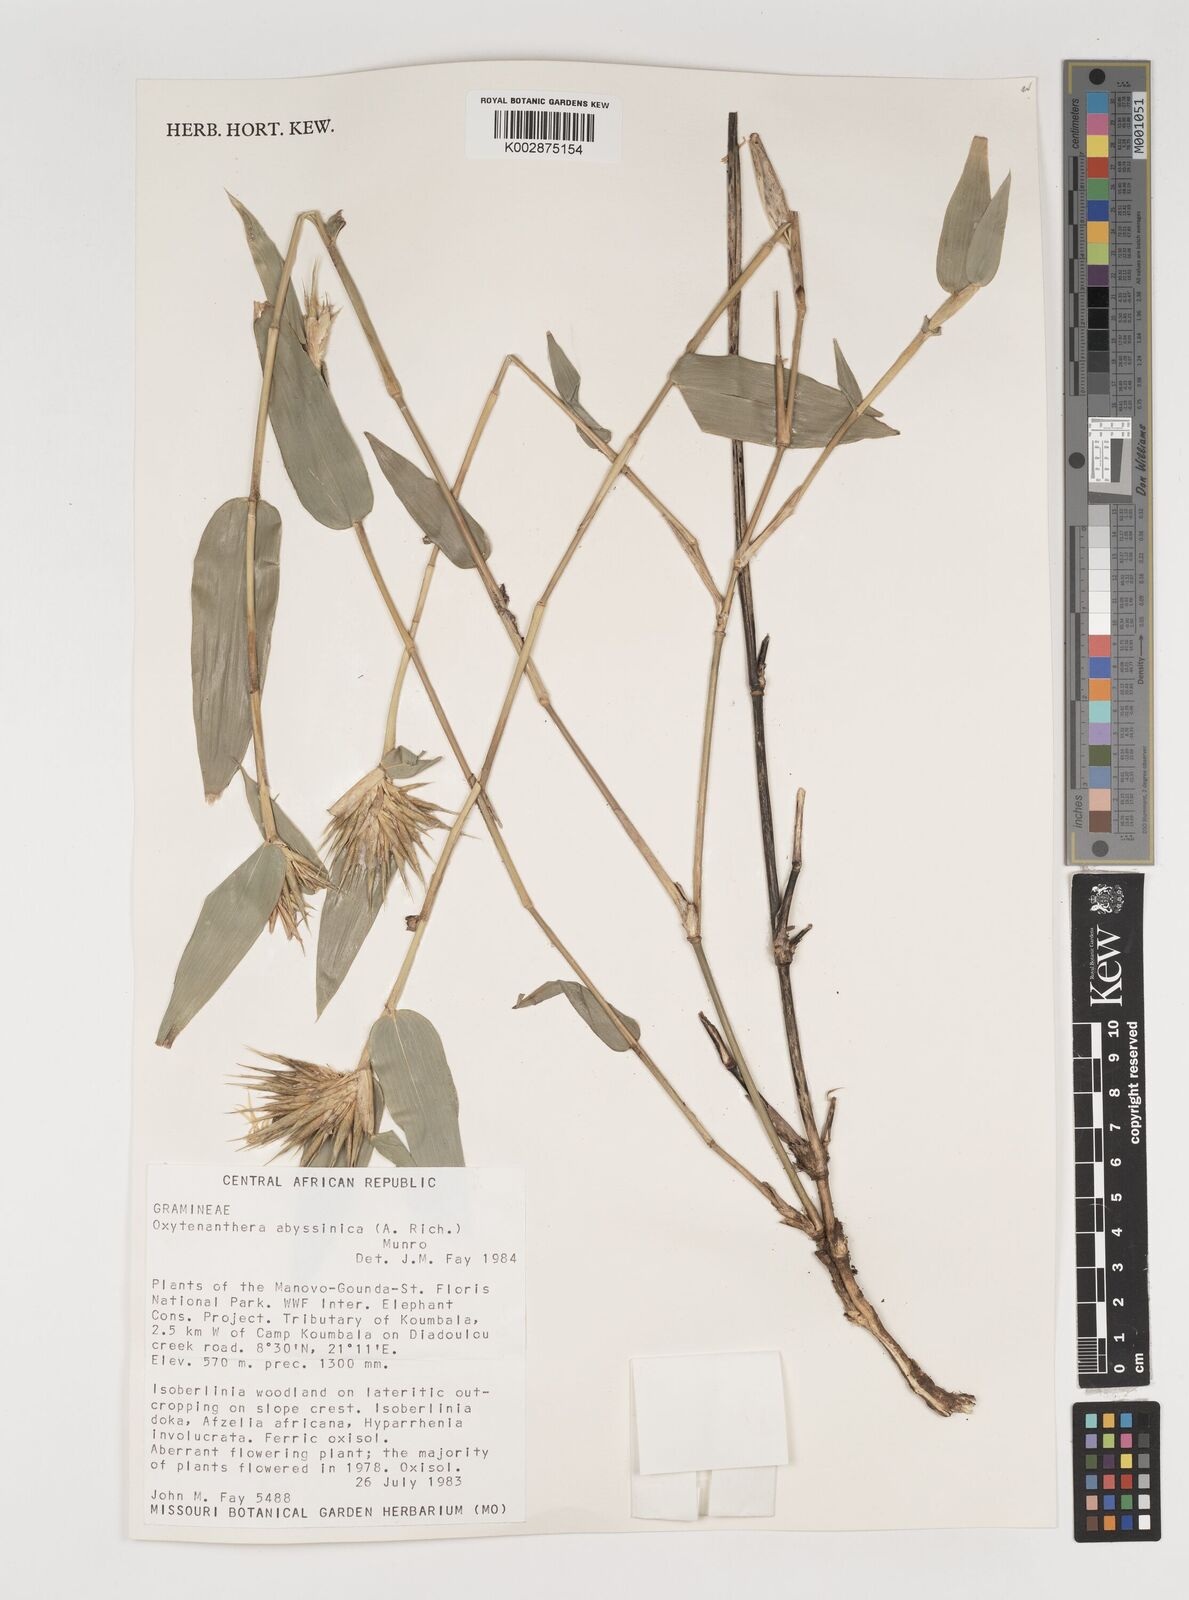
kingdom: Plantae
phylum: Tracheophyta
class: Liliopsida
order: Poales
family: Poaceae
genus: Oxytenanthera
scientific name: Oxytenanthera abyssinica
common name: Wine bamboo
